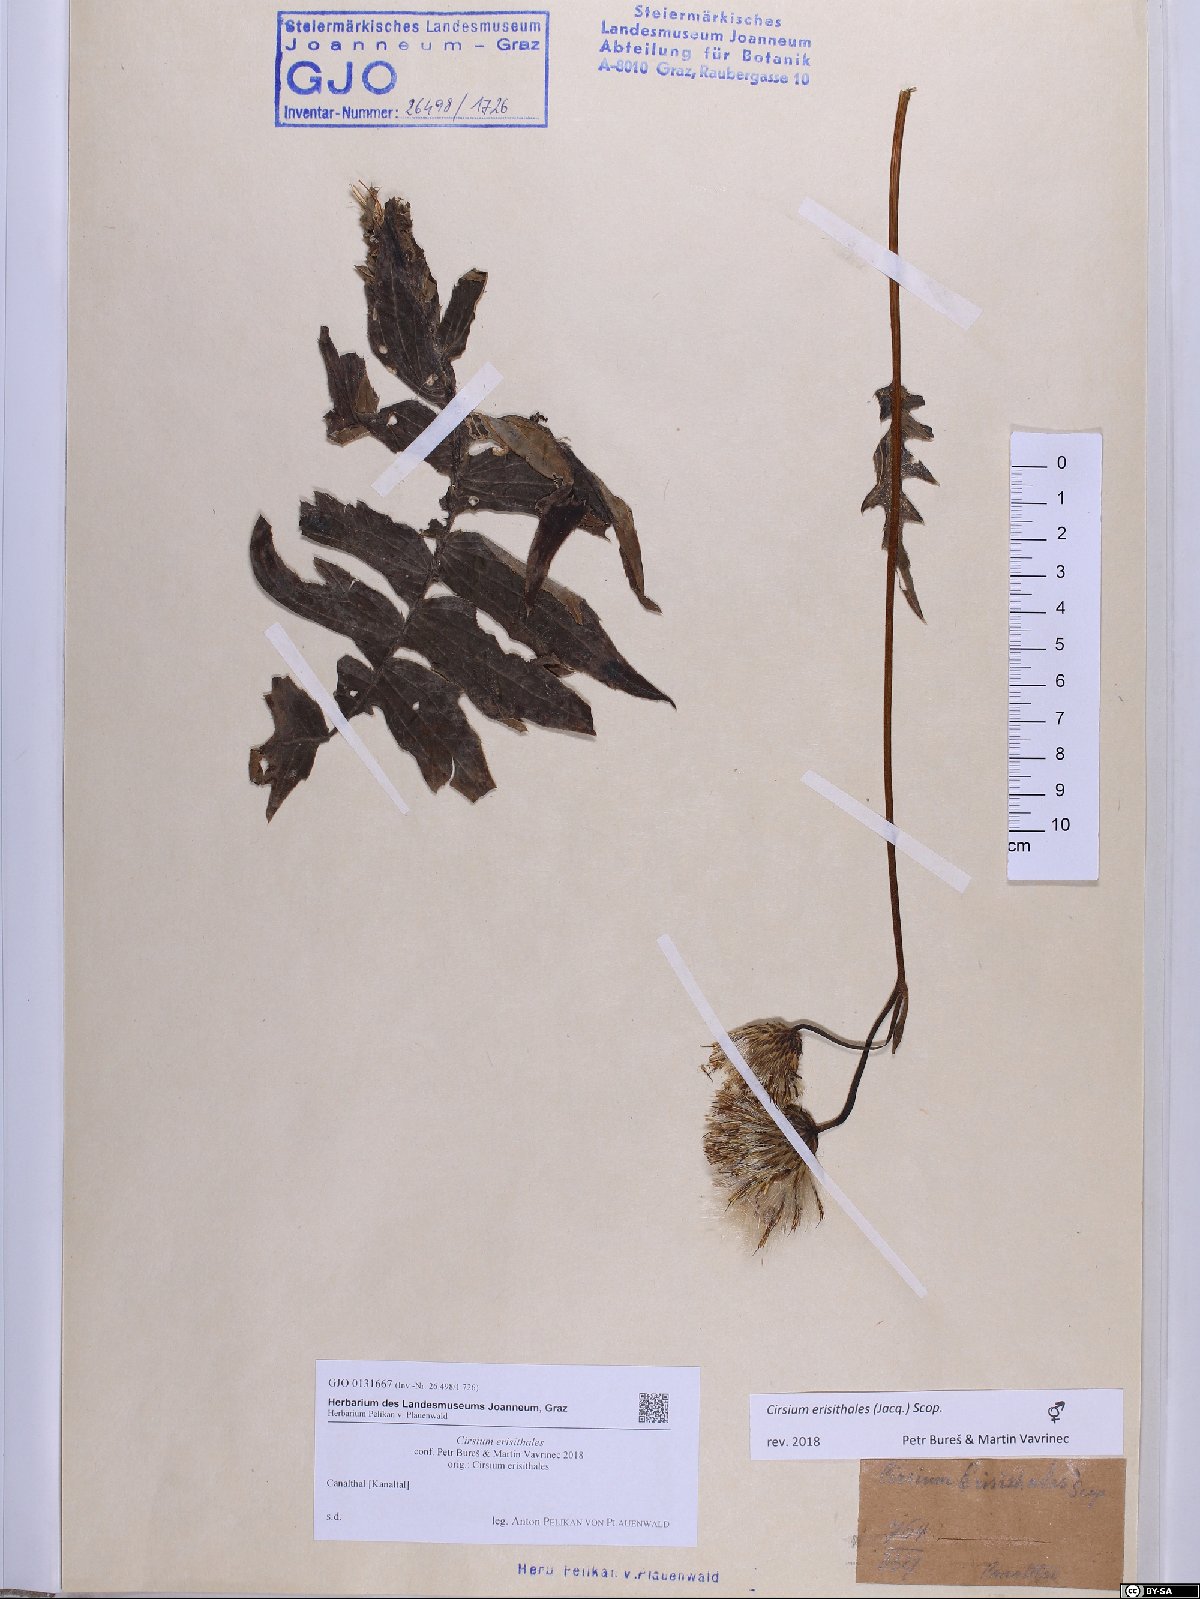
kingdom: Plantae
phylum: Tracheophyta
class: Magnoliopsida
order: Asterales
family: Asteraceae
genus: Cirsium
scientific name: Cirsium erisithales
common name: Yellow thistle
